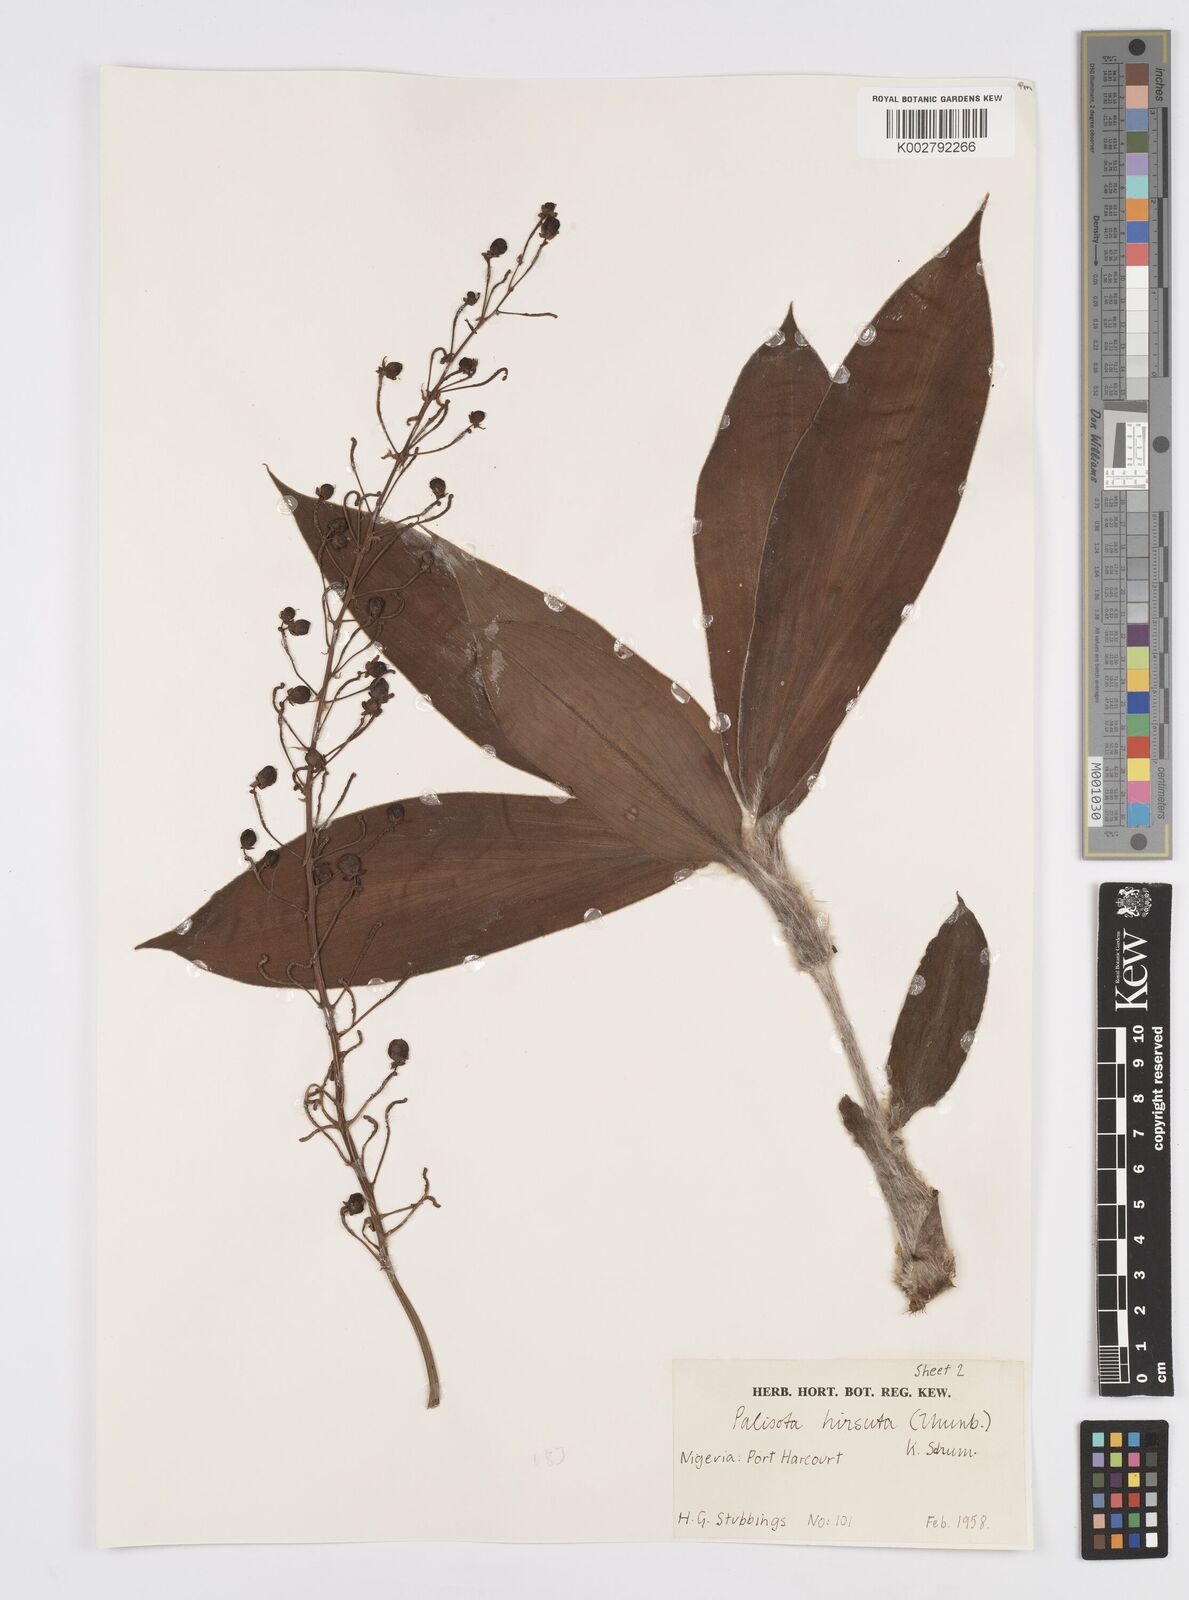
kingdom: Plantae
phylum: Tracheophyta
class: Liliopsida
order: Commelinales
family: Commelinaceae
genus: Palisota
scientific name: Palisota hirsuta
